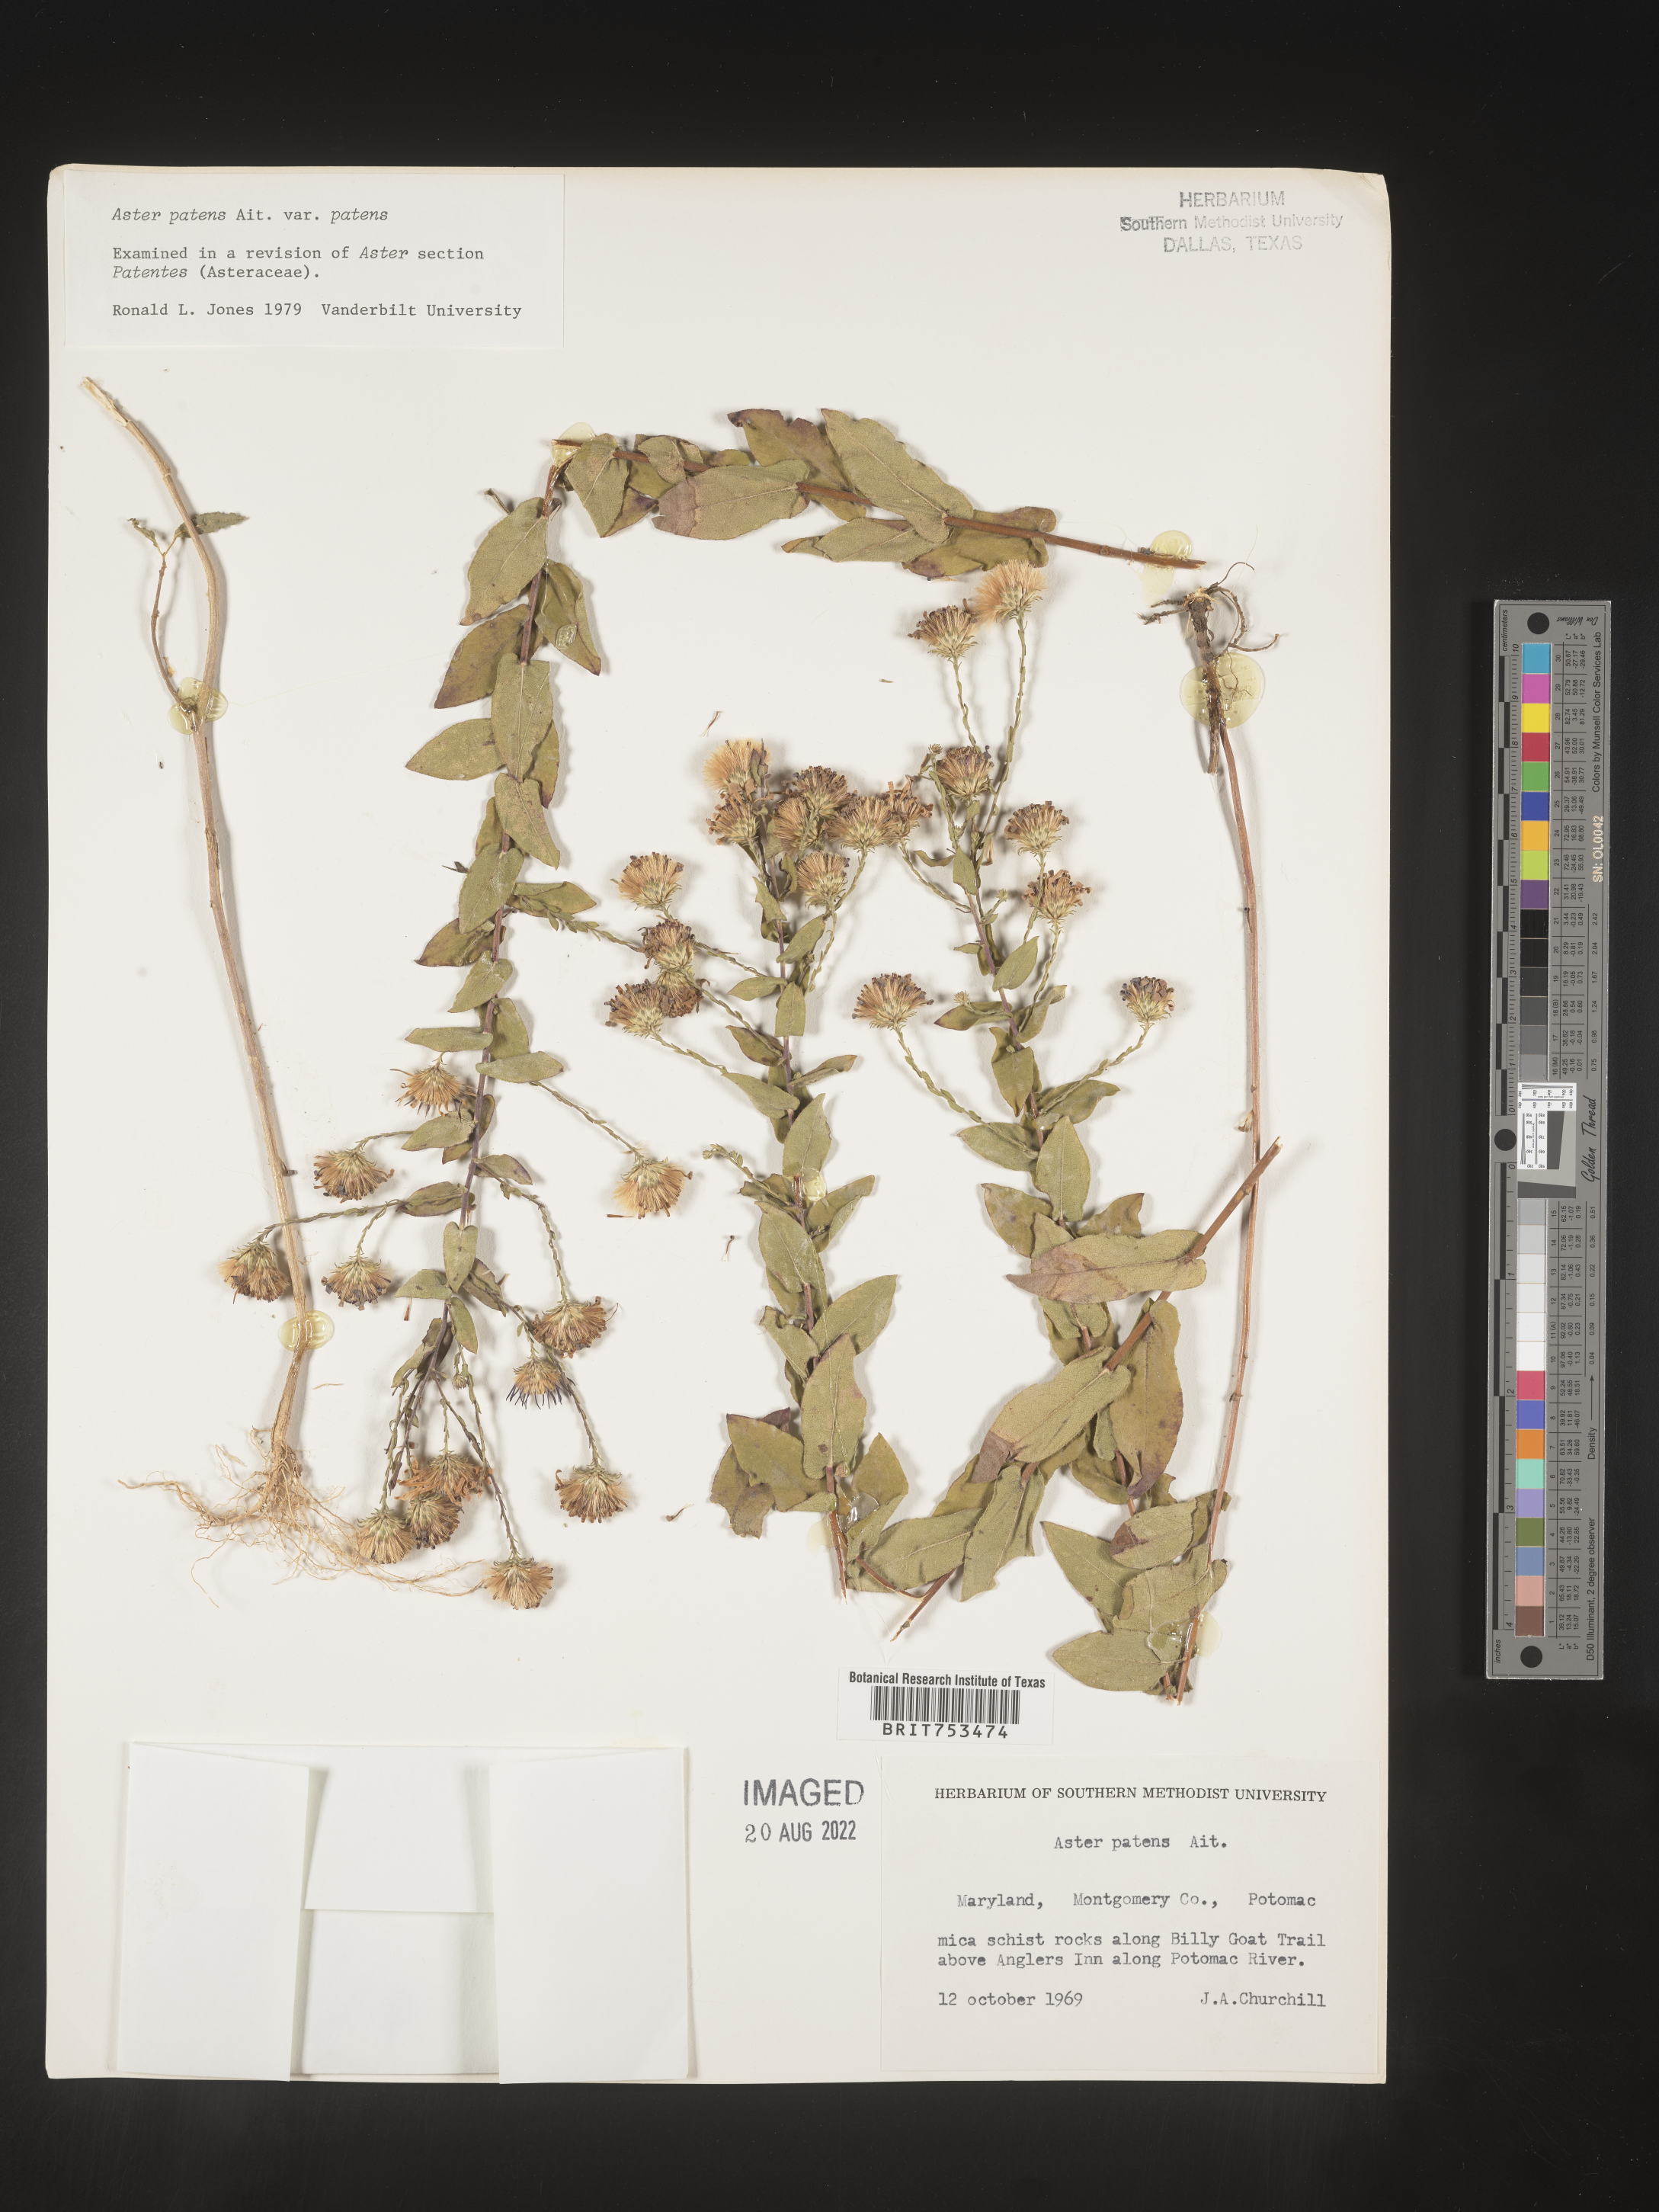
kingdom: Plantae
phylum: Tracheophyta
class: Magnoliopsida
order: Asterales
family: Asteraceae
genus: Symphyotrichum
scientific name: Symphyotrichum patens
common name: Late purple aster
